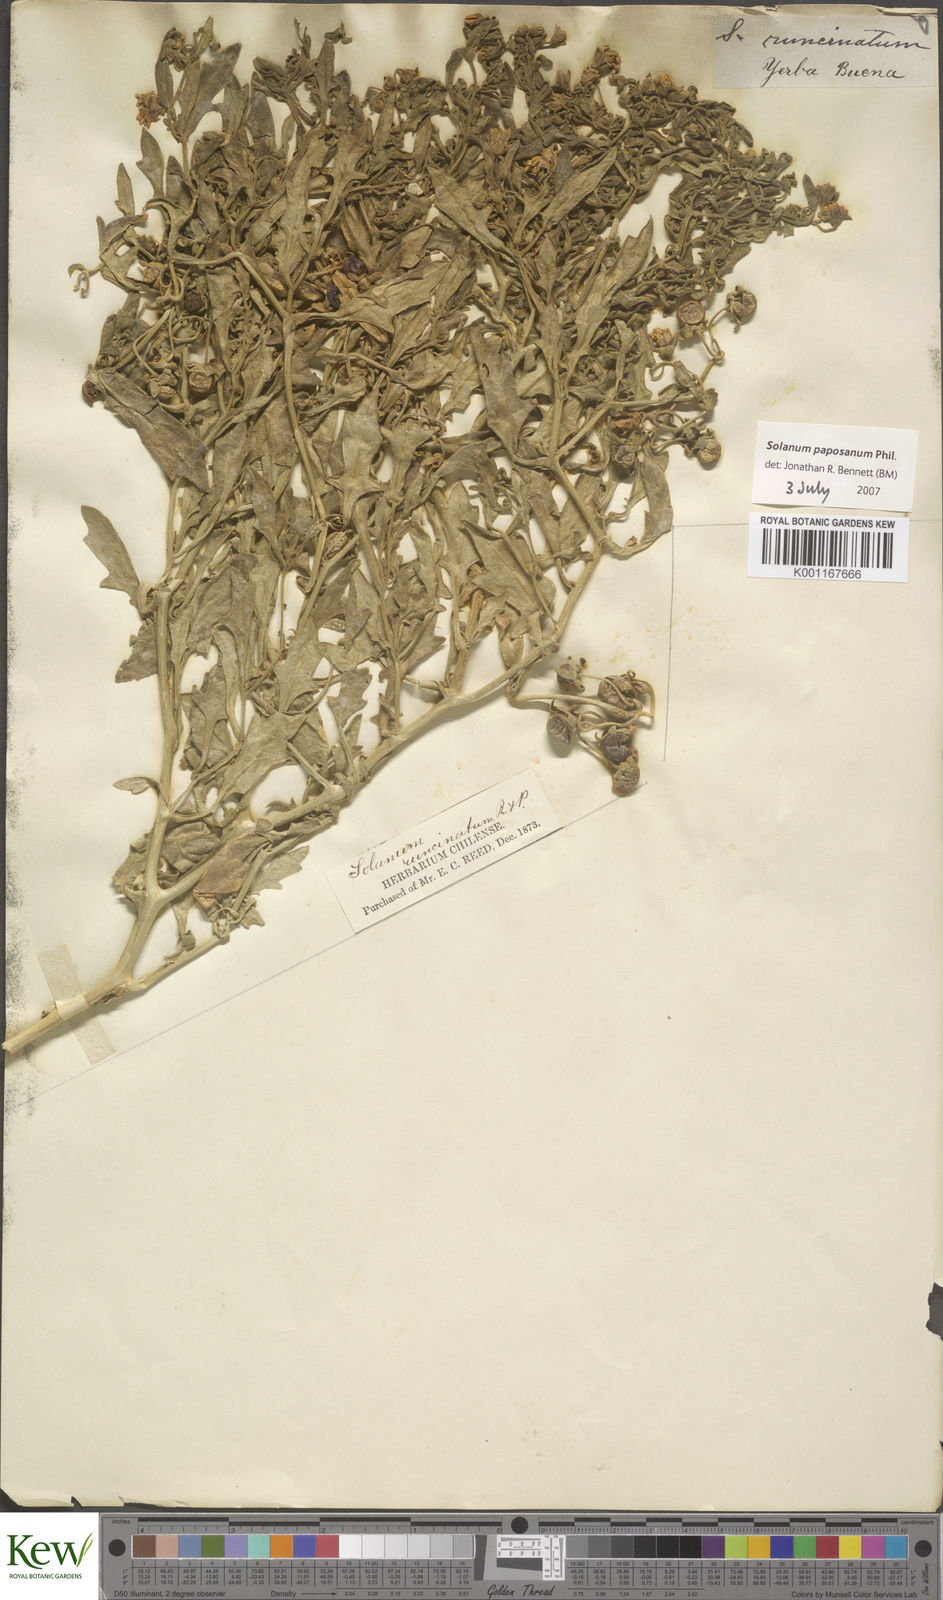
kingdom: Plantae
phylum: Tracheophyta
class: Magnoliopsida
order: Solanales
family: Solanaceae
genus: Solanum
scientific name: Solanum paposanum
